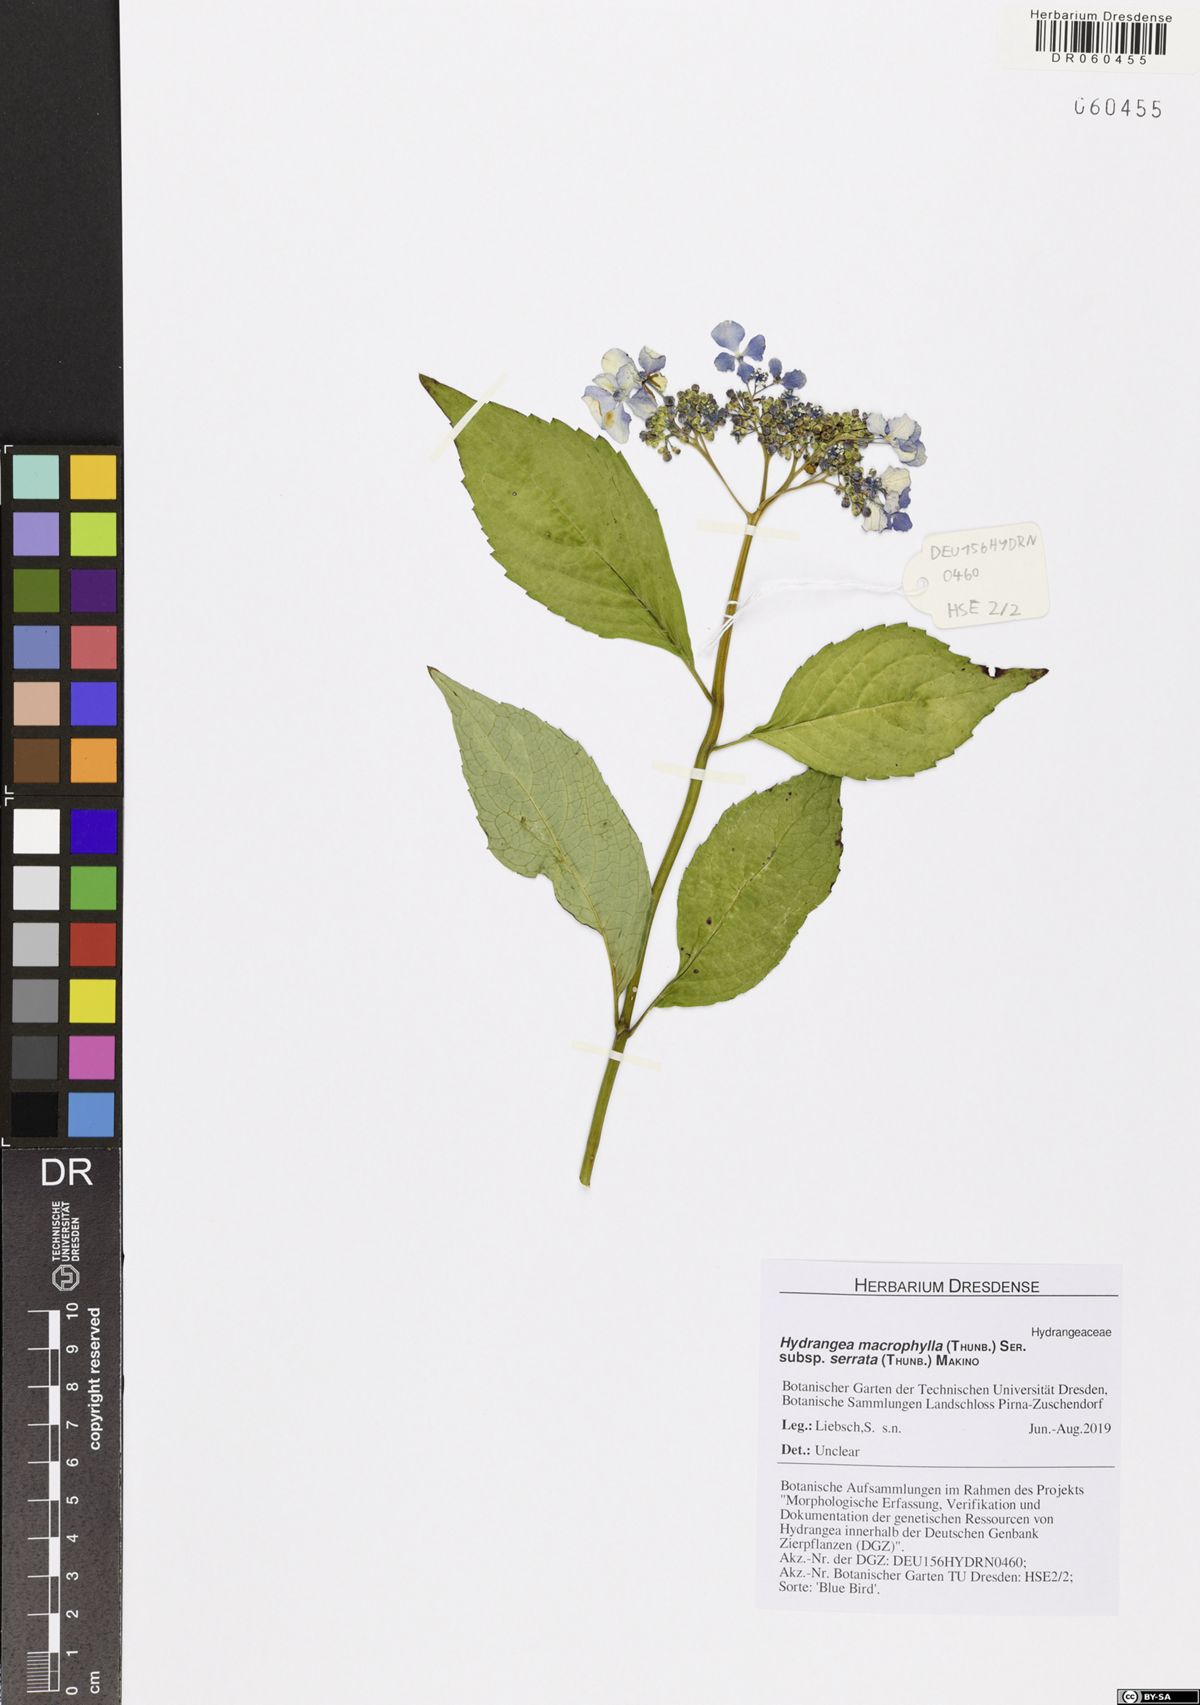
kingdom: Plantae
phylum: Tracheophyta
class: Magnoliopsida
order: Cornales
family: Hydrangeaceae
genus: Hydrangea
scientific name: Hydrangea serrata
